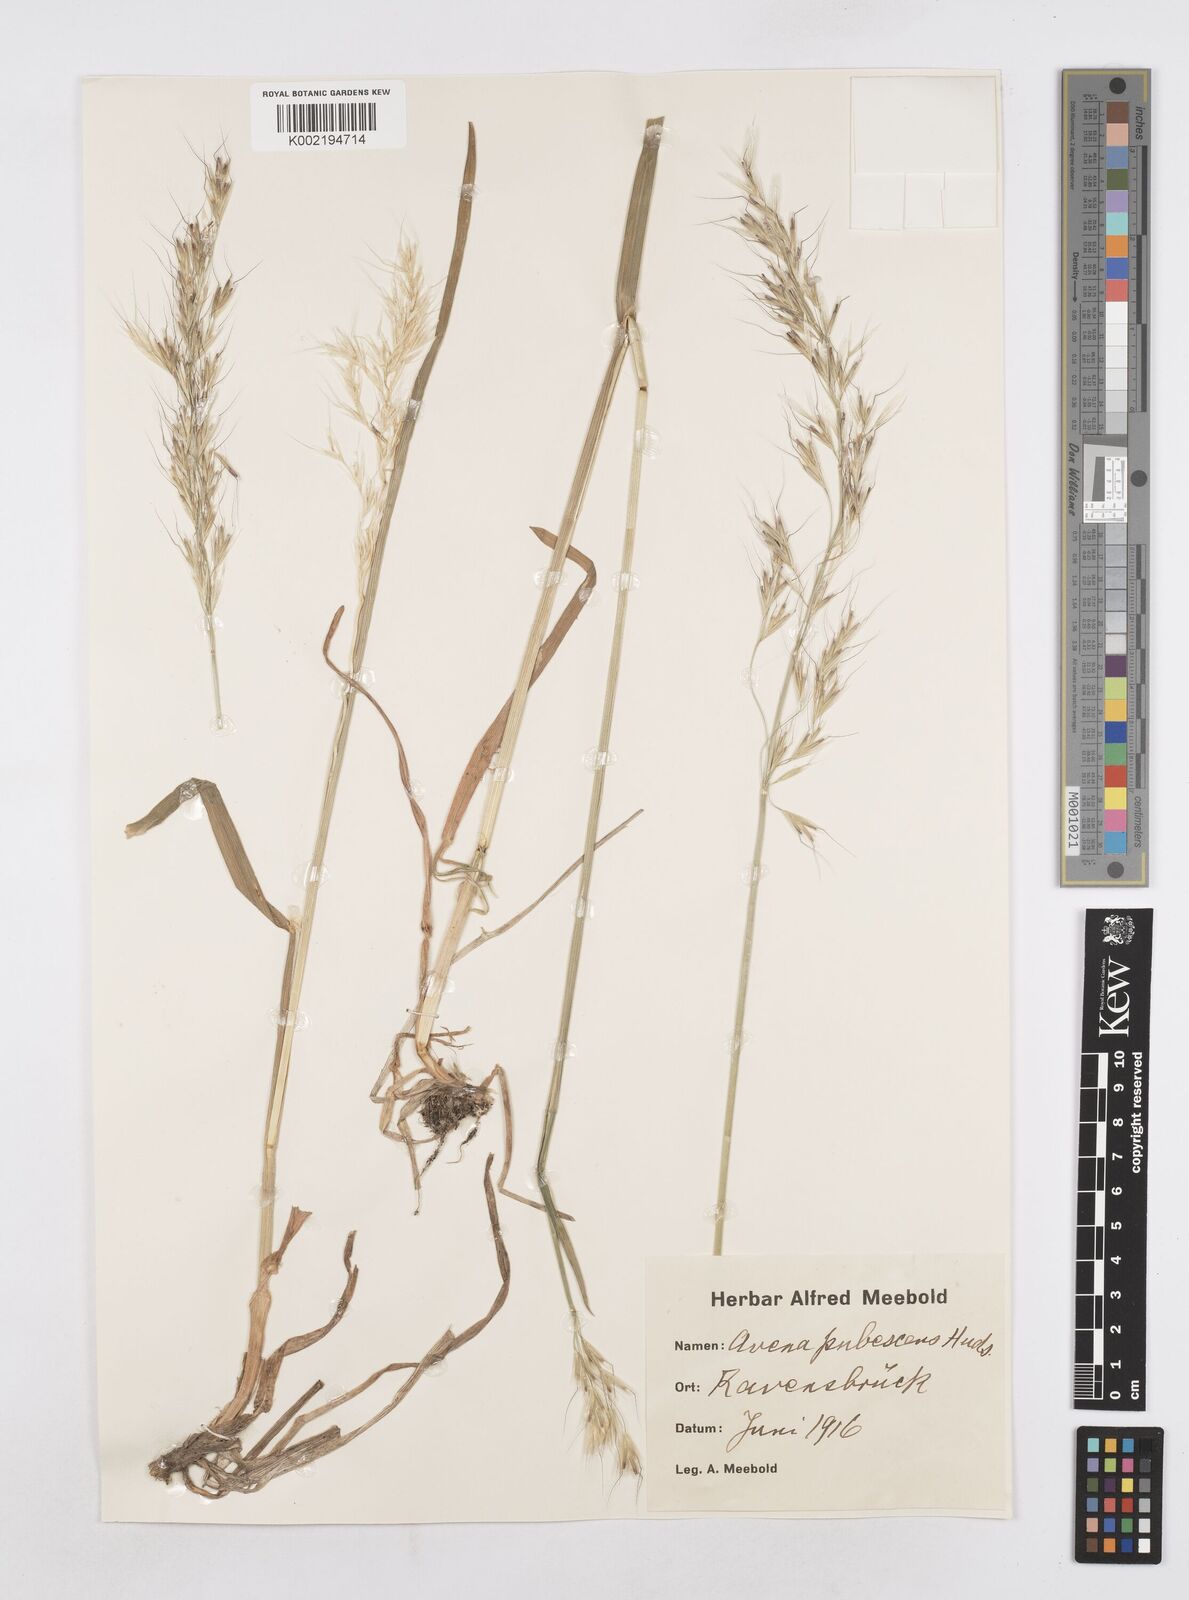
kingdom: Plantae
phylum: Tracheophyta
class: Liliopsida
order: Poales
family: Poaceae
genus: Avenula
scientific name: Avenula pubescens
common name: Downy alpine oatgrass
